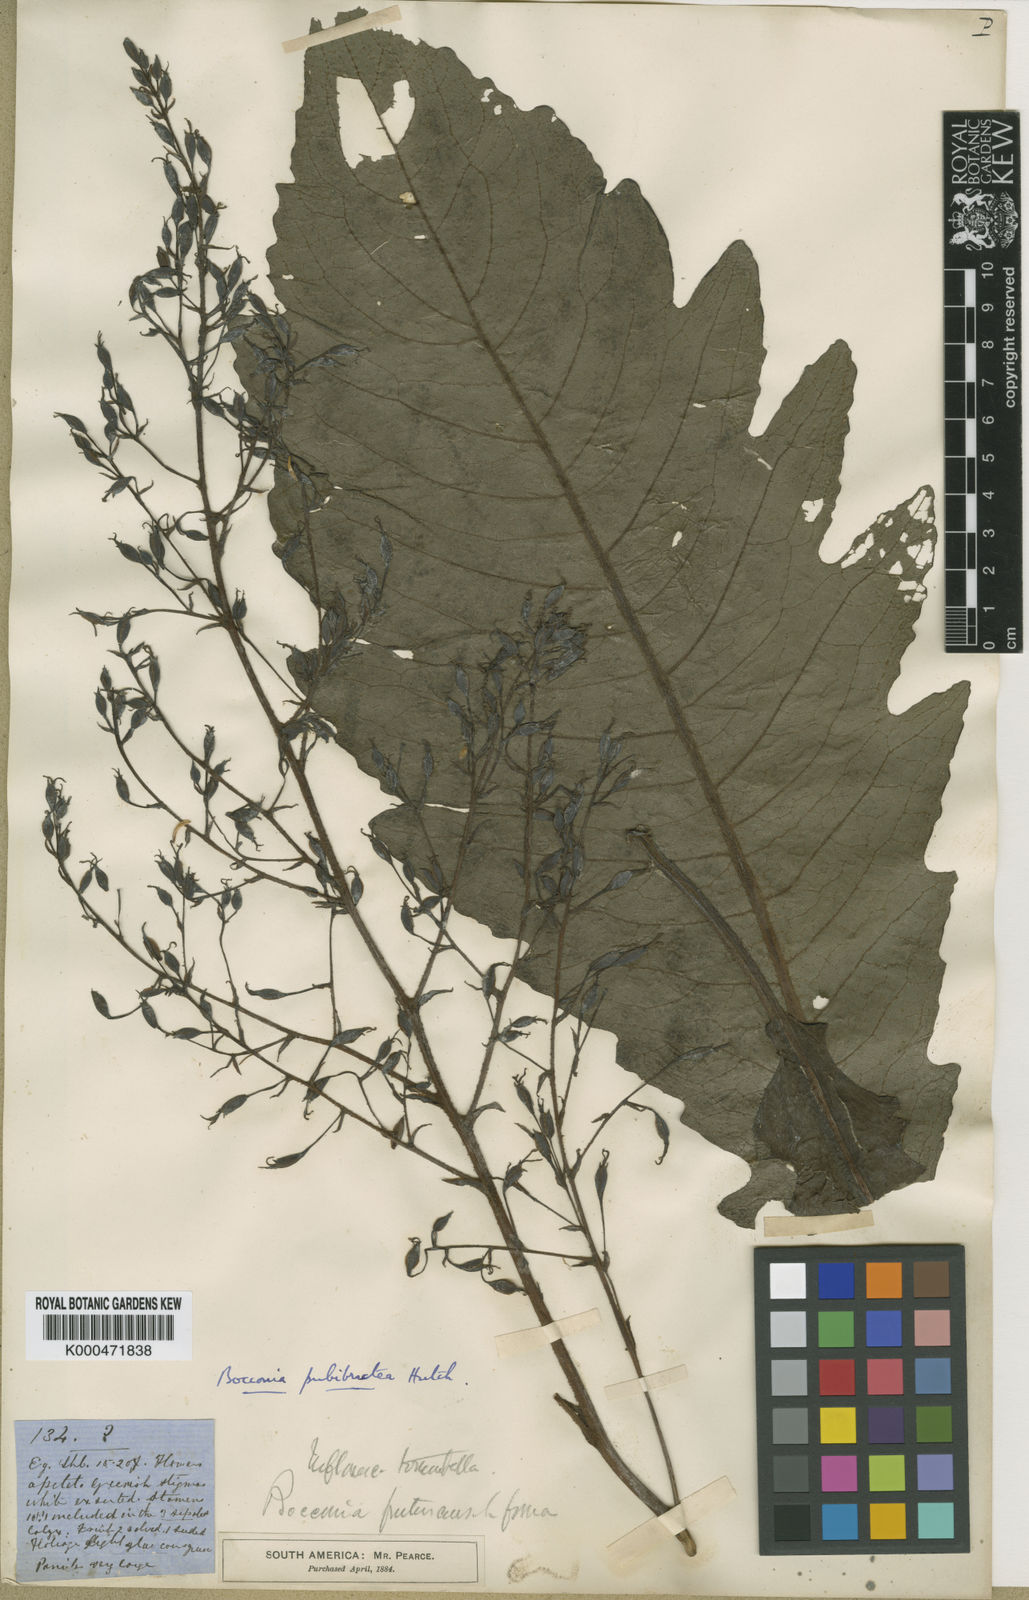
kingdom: Plantae
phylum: Tracheophyta
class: Magnoliopsida
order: Ranunculales
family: Papaveraceae
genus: Bocconia
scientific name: Bocconia integrifolia
